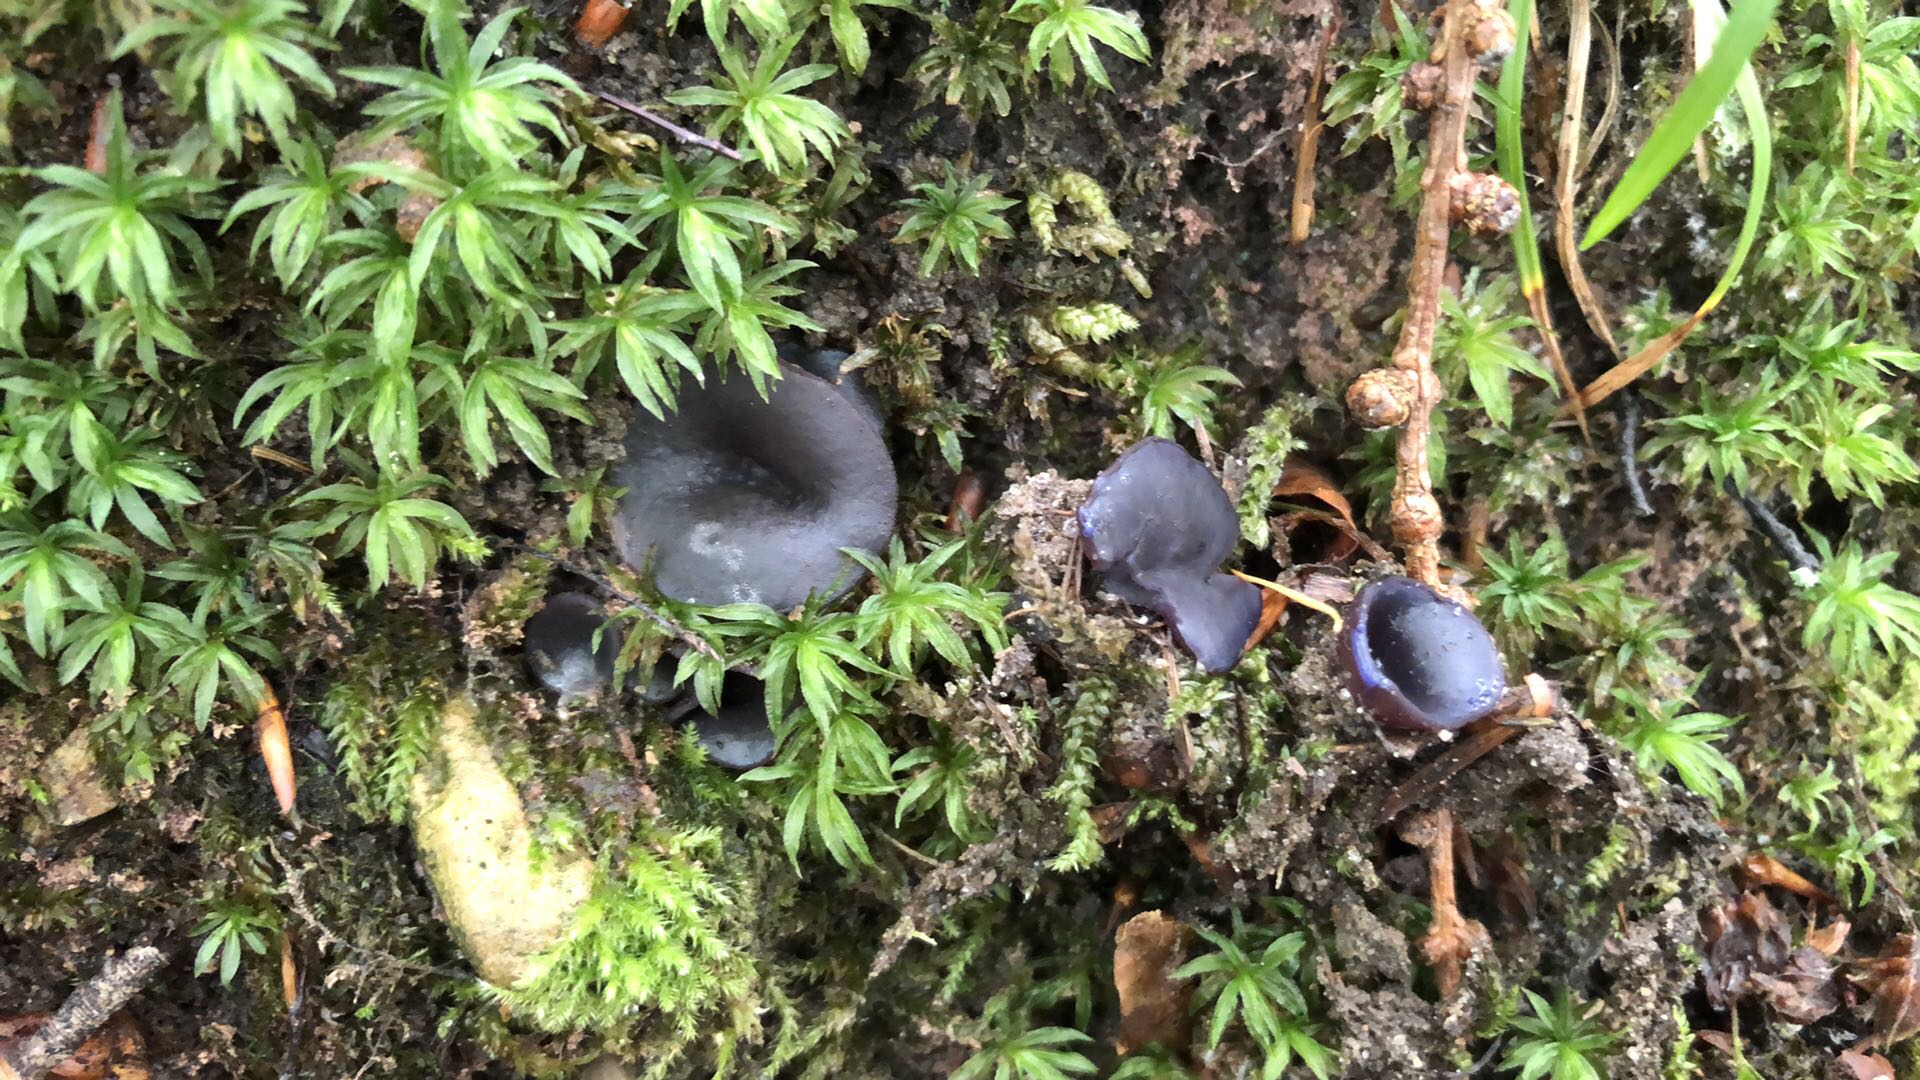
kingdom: Fungi
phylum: Ascomycota
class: Pezizomycetes
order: Pezizales
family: Pezizaceae
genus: Peziza
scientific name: Peziza saniosa
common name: blåmælket bægersvamp
